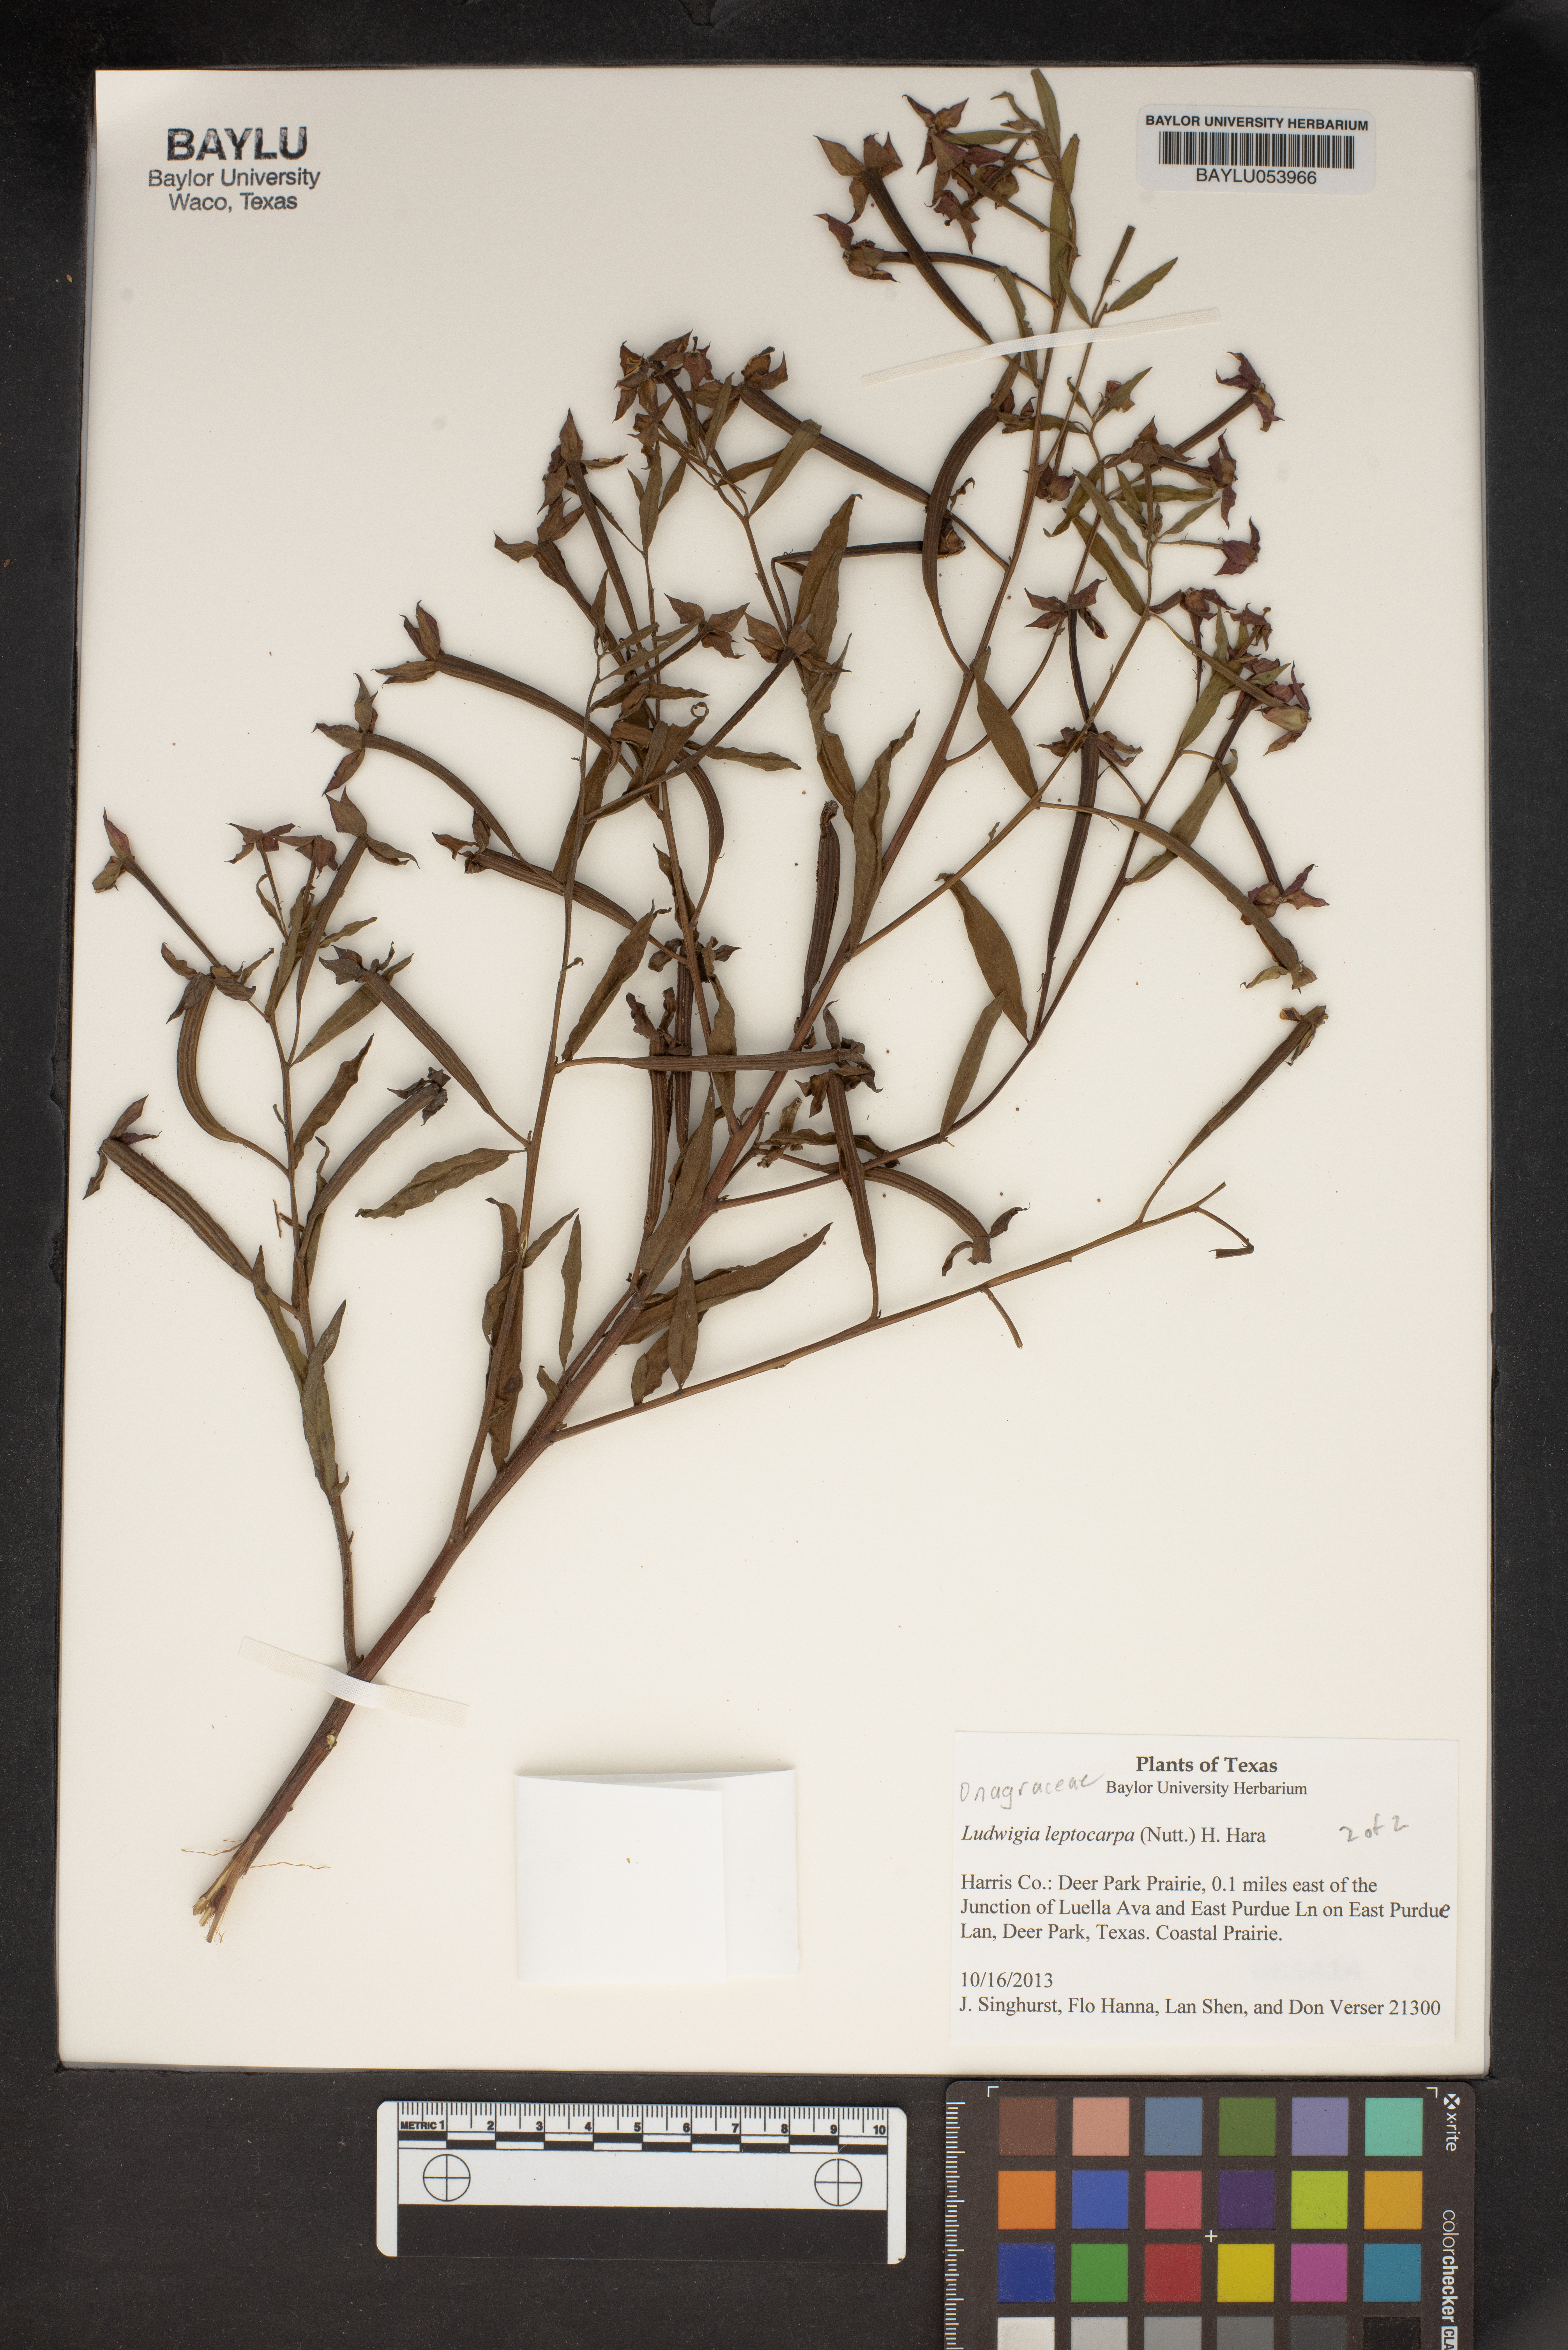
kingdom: Plantae
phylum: Tracheophyta
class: Magnoliopsida
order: Myrtales
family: Onagraceae
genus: Ludwigia
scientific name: Ludwigia leptocarpa
